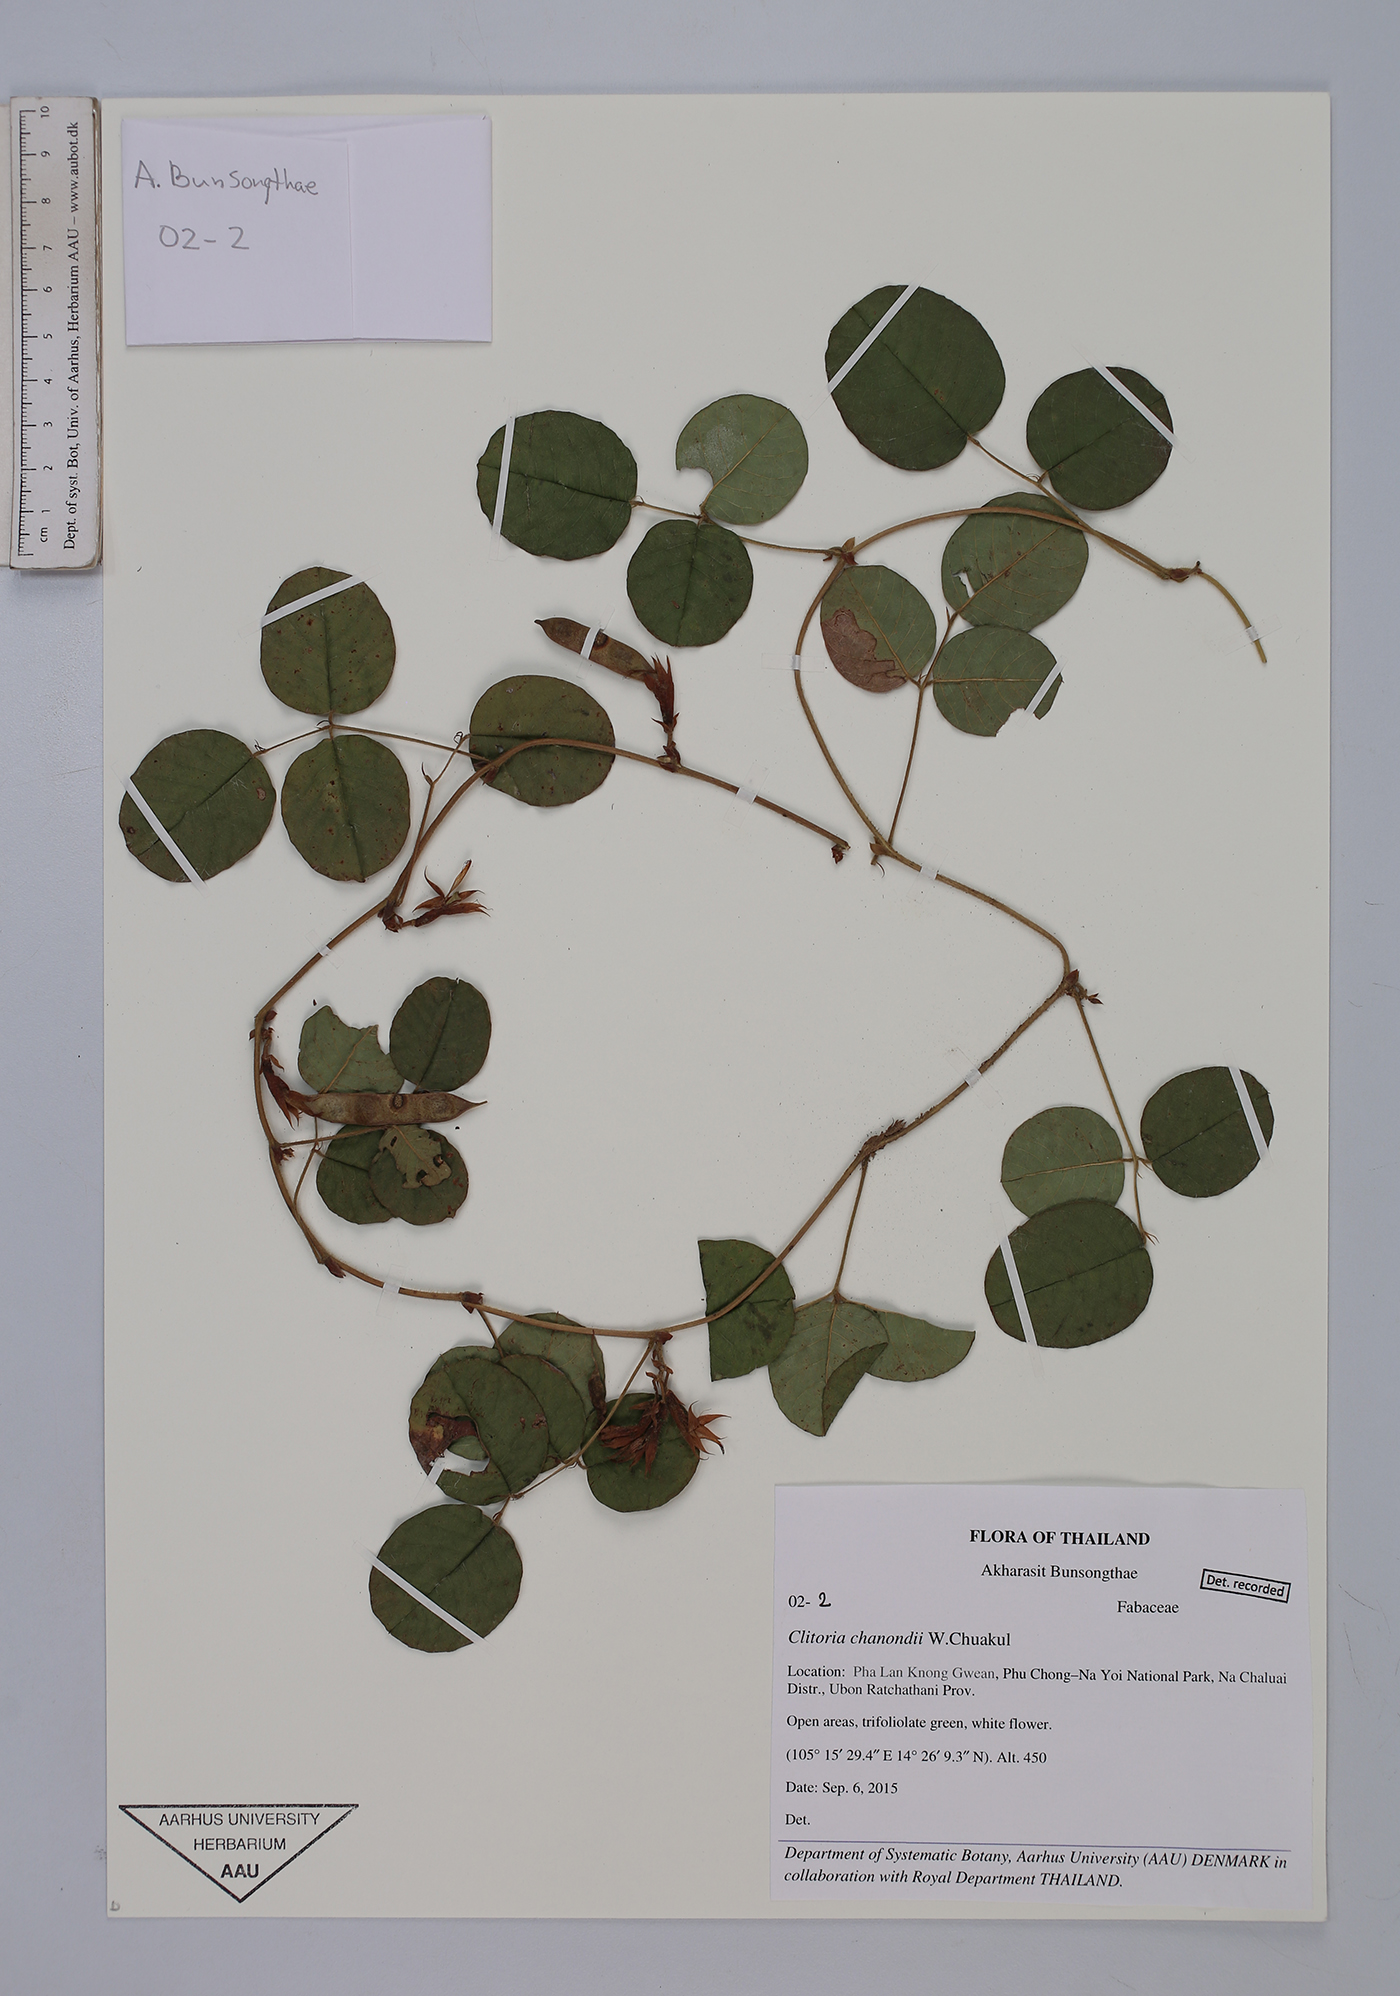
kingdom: Plantae
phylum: Tracheophyta
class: Magnoliopsida
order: Fabales
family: Fabaceae
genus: Clitoria
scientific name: Clitoria chanondii
